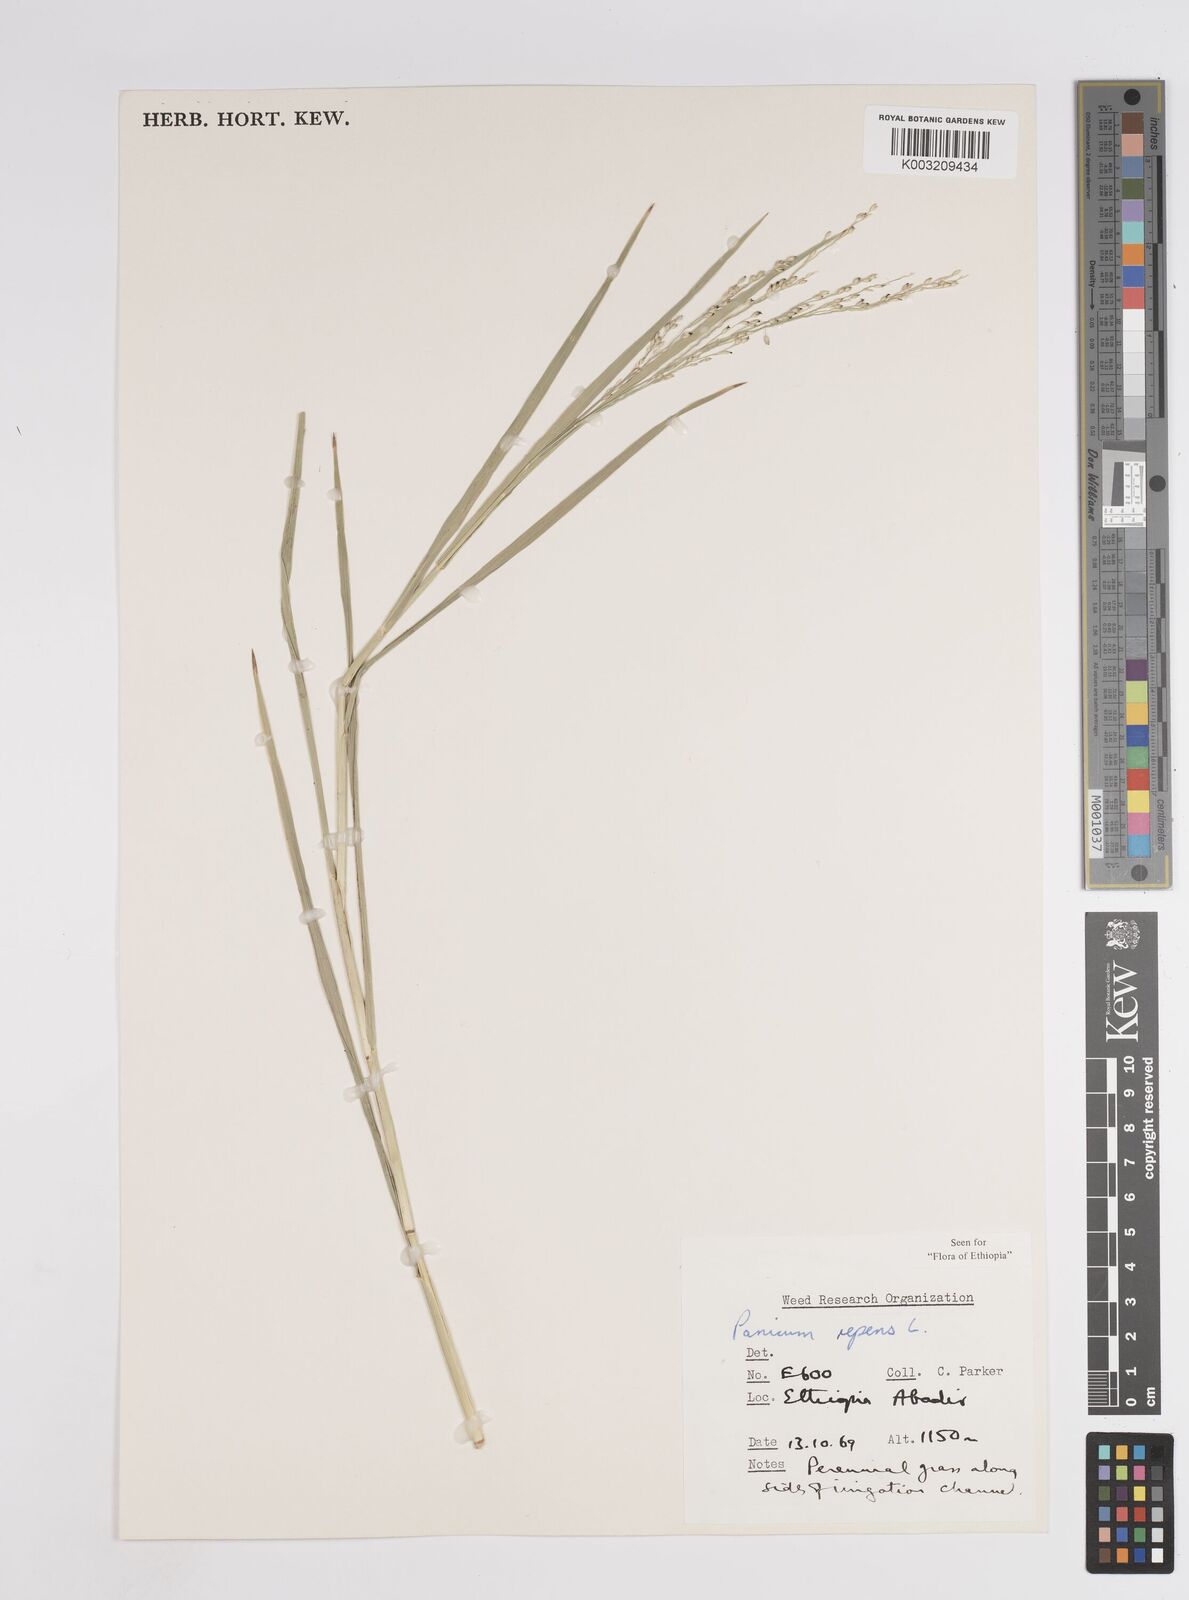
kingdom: Plantae
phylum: Tracheophyta
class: Liliopsida
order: Poales
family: Poaceae
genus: Panicum
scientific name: Panicum repens
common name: Torpedo grass
